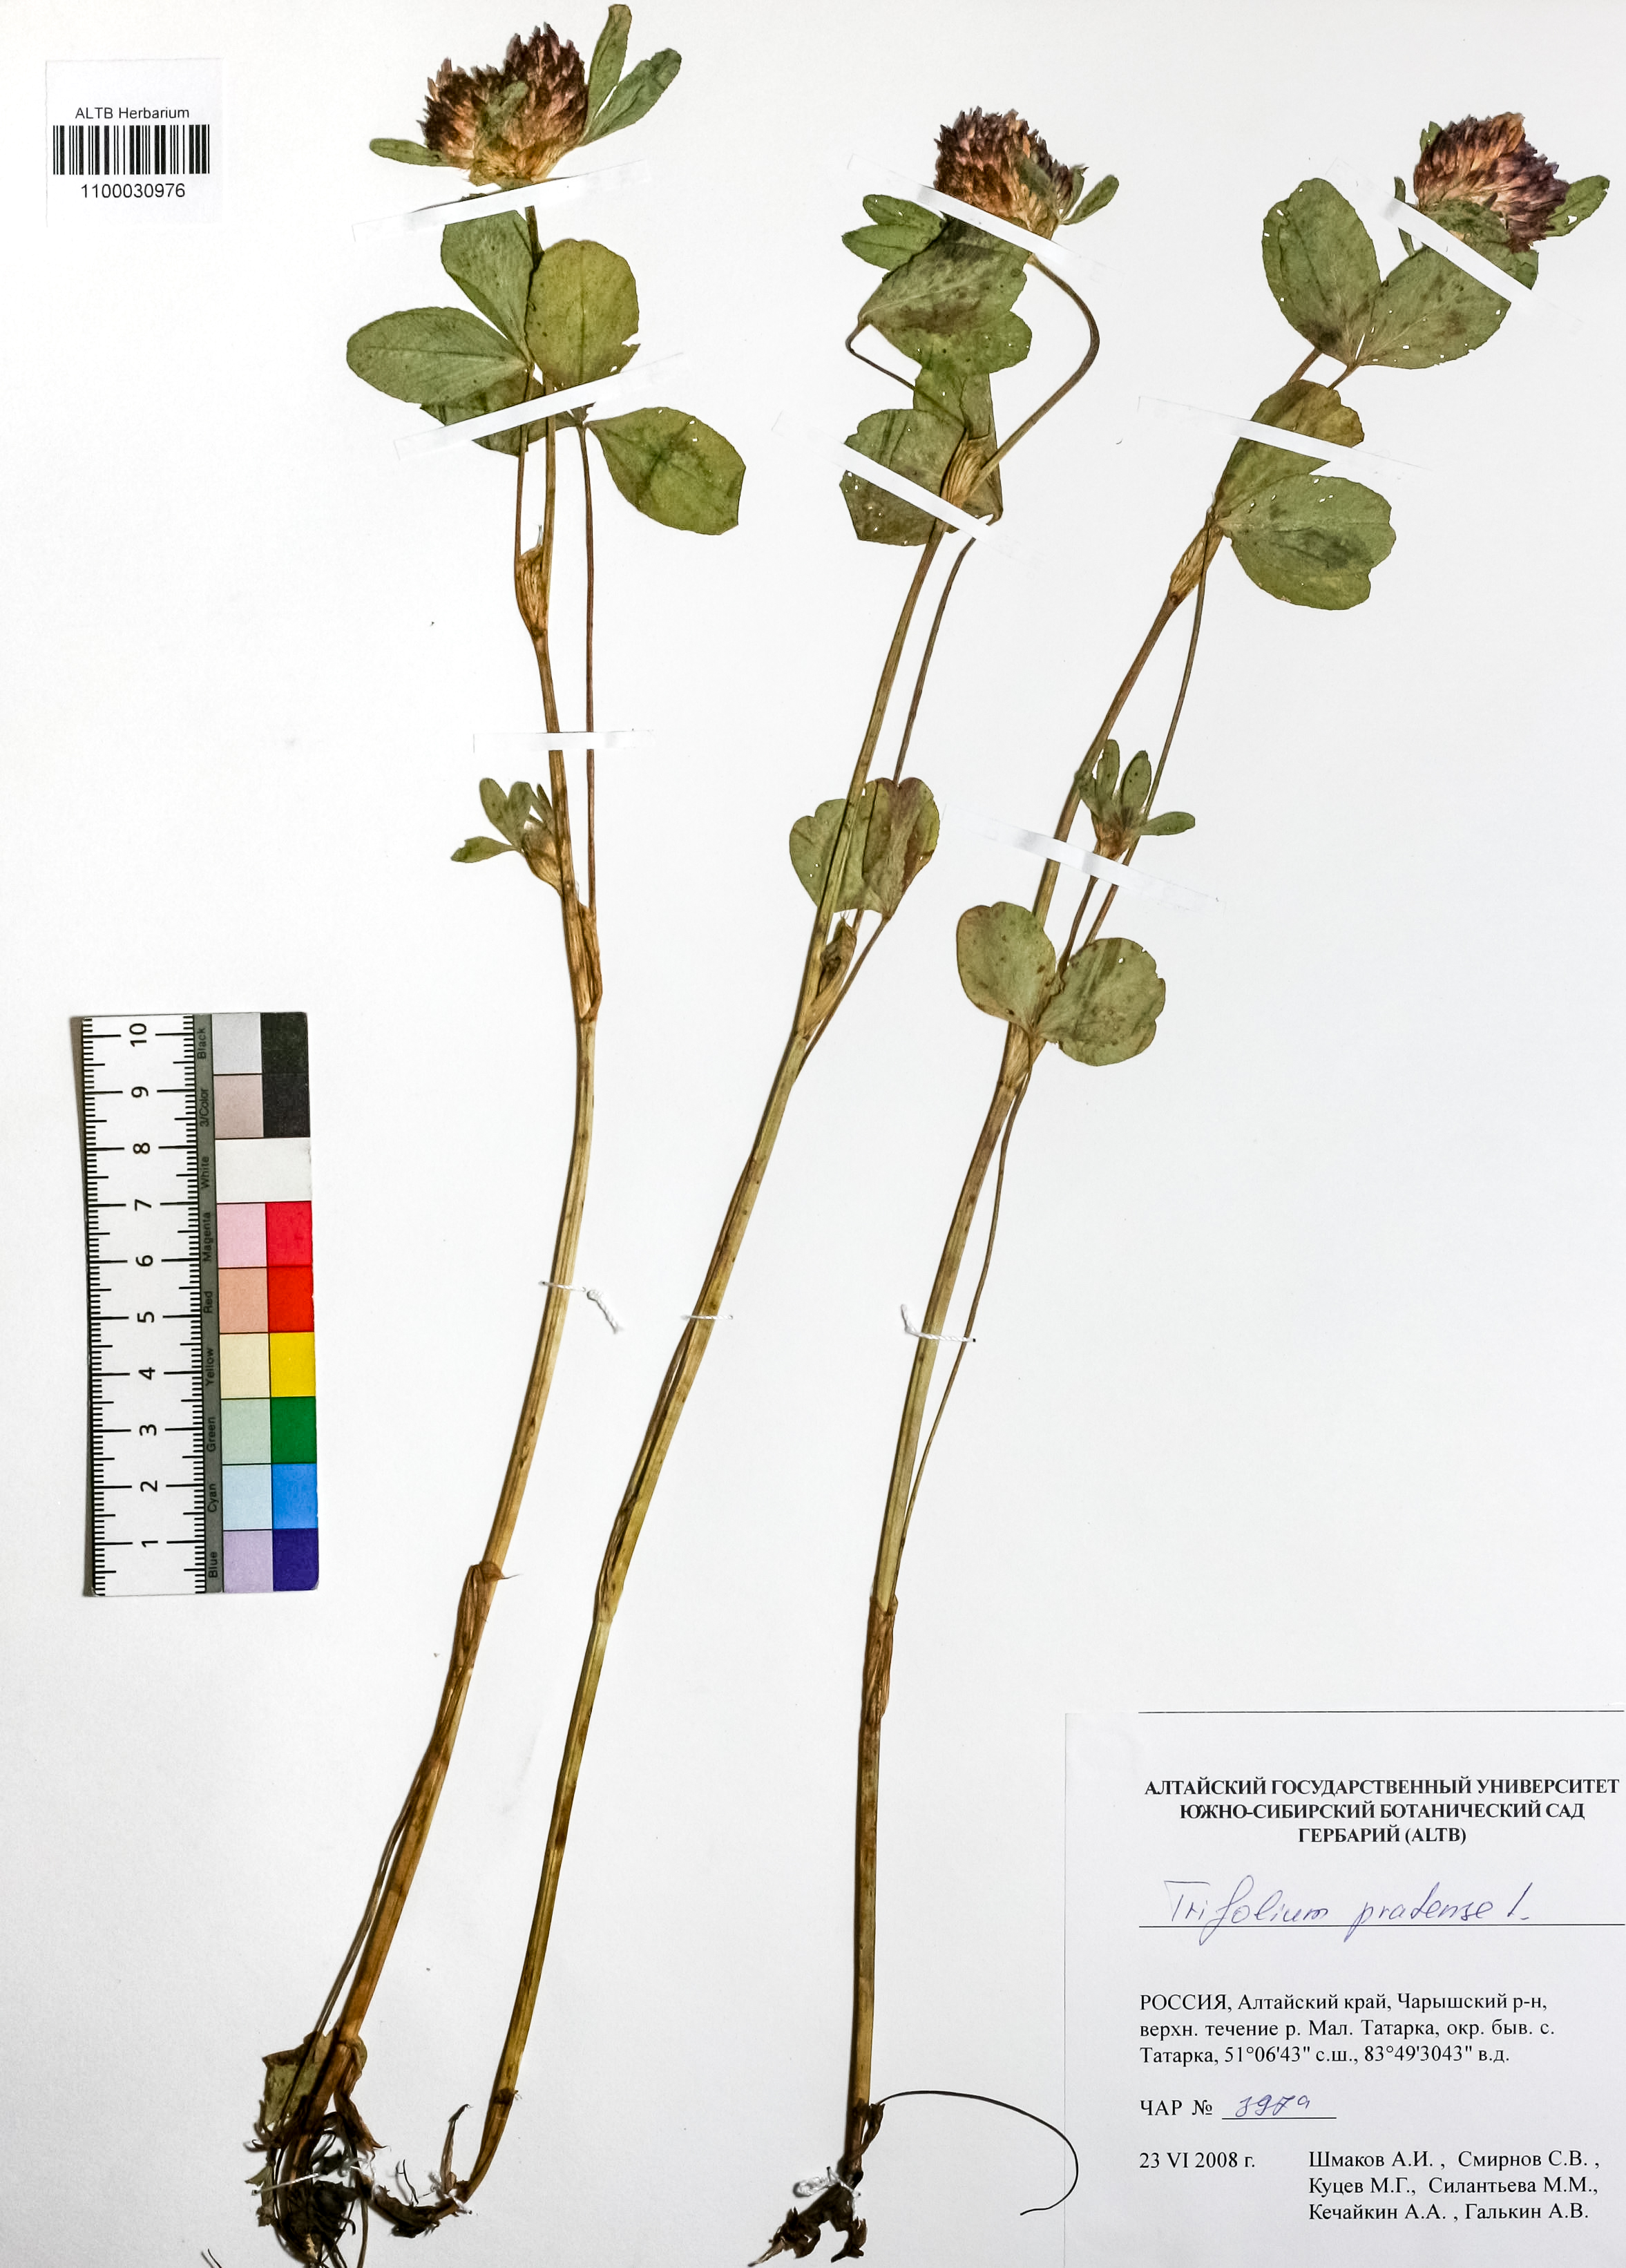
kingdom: Plantae
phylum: Tracheophyta
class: Magnoliopsida
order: Fabales
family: Fabaceae
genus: Trifolium
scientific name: Trifolium pratense
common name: Red clover
